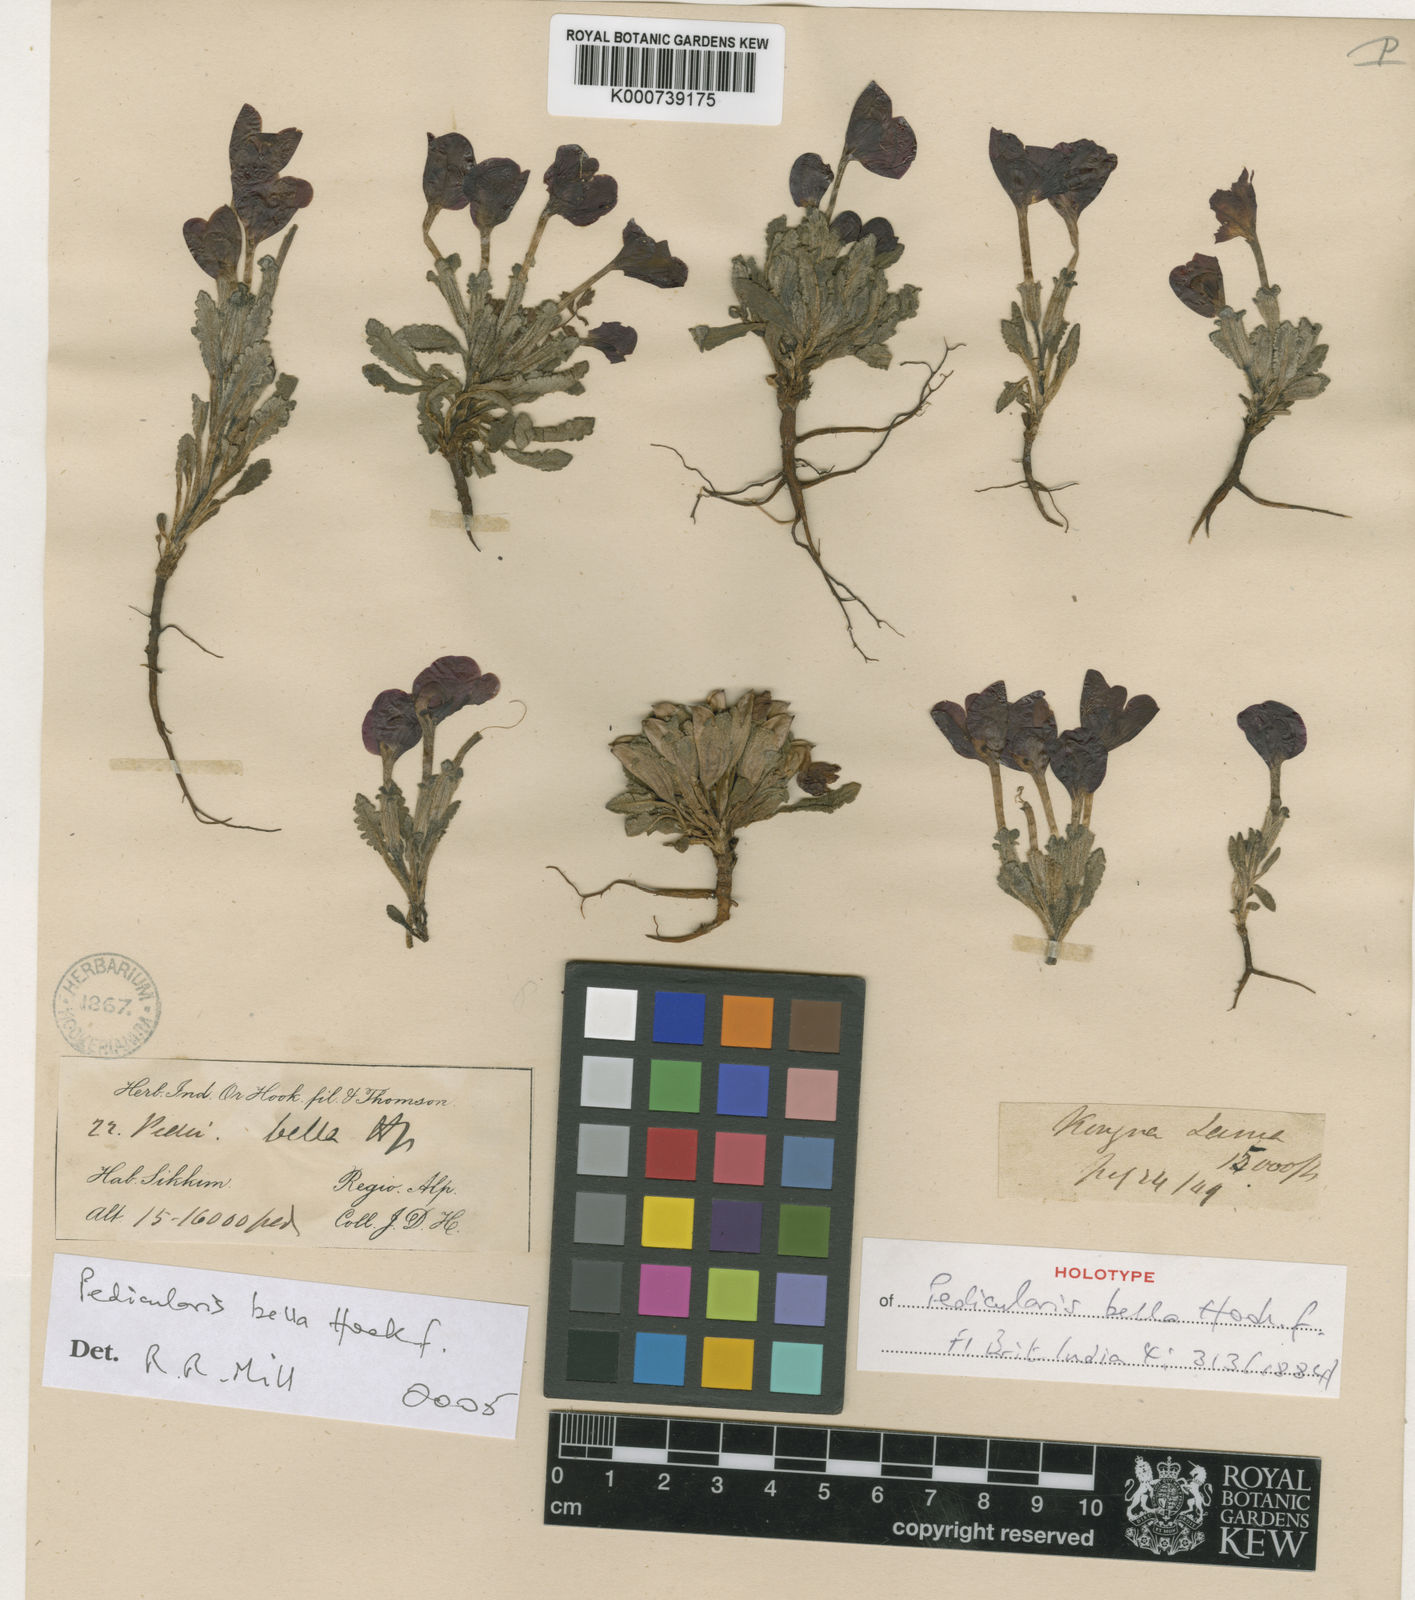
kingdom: Plantae
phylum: Tracheophyta
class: Magnoliopsida
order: Lamiales
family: Orobanchaceae
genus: Pedicularis
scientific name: Pedicularis bella
